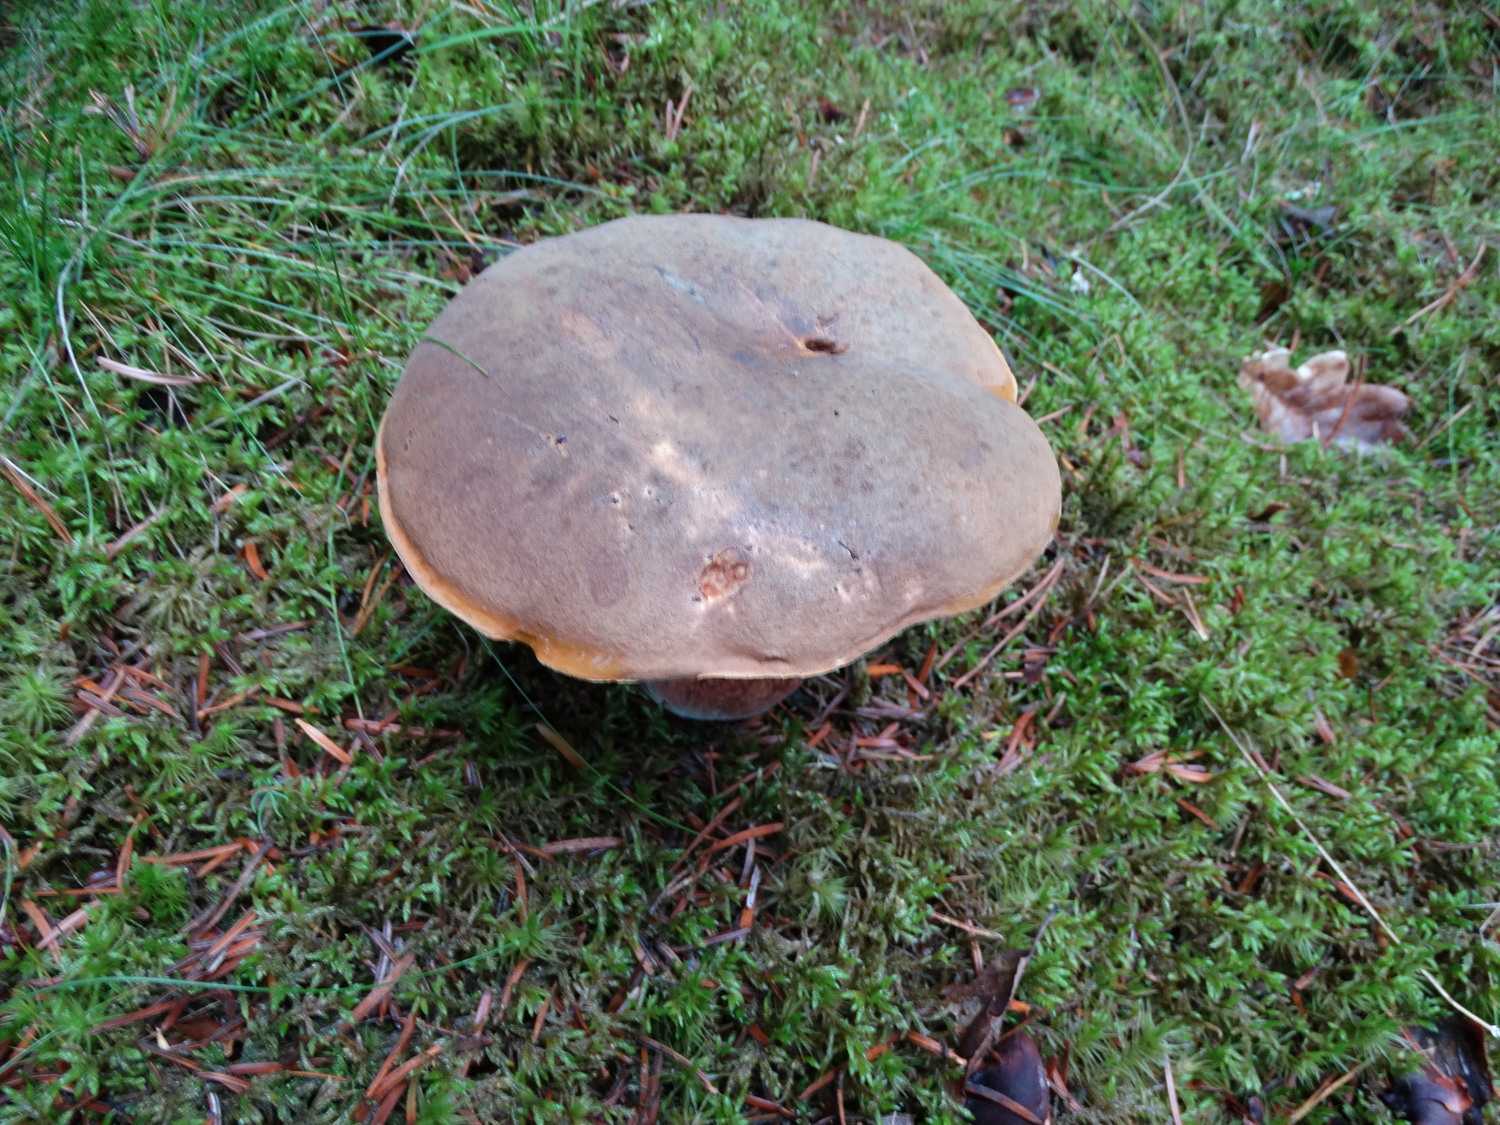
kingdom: Fungi
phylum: Basidiomycota
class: Agaricomycetes
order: Boletales
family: Boletaceae
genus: Neoboletus
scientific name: Neoboletus erythropus
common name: punktstokket indigorørhat
